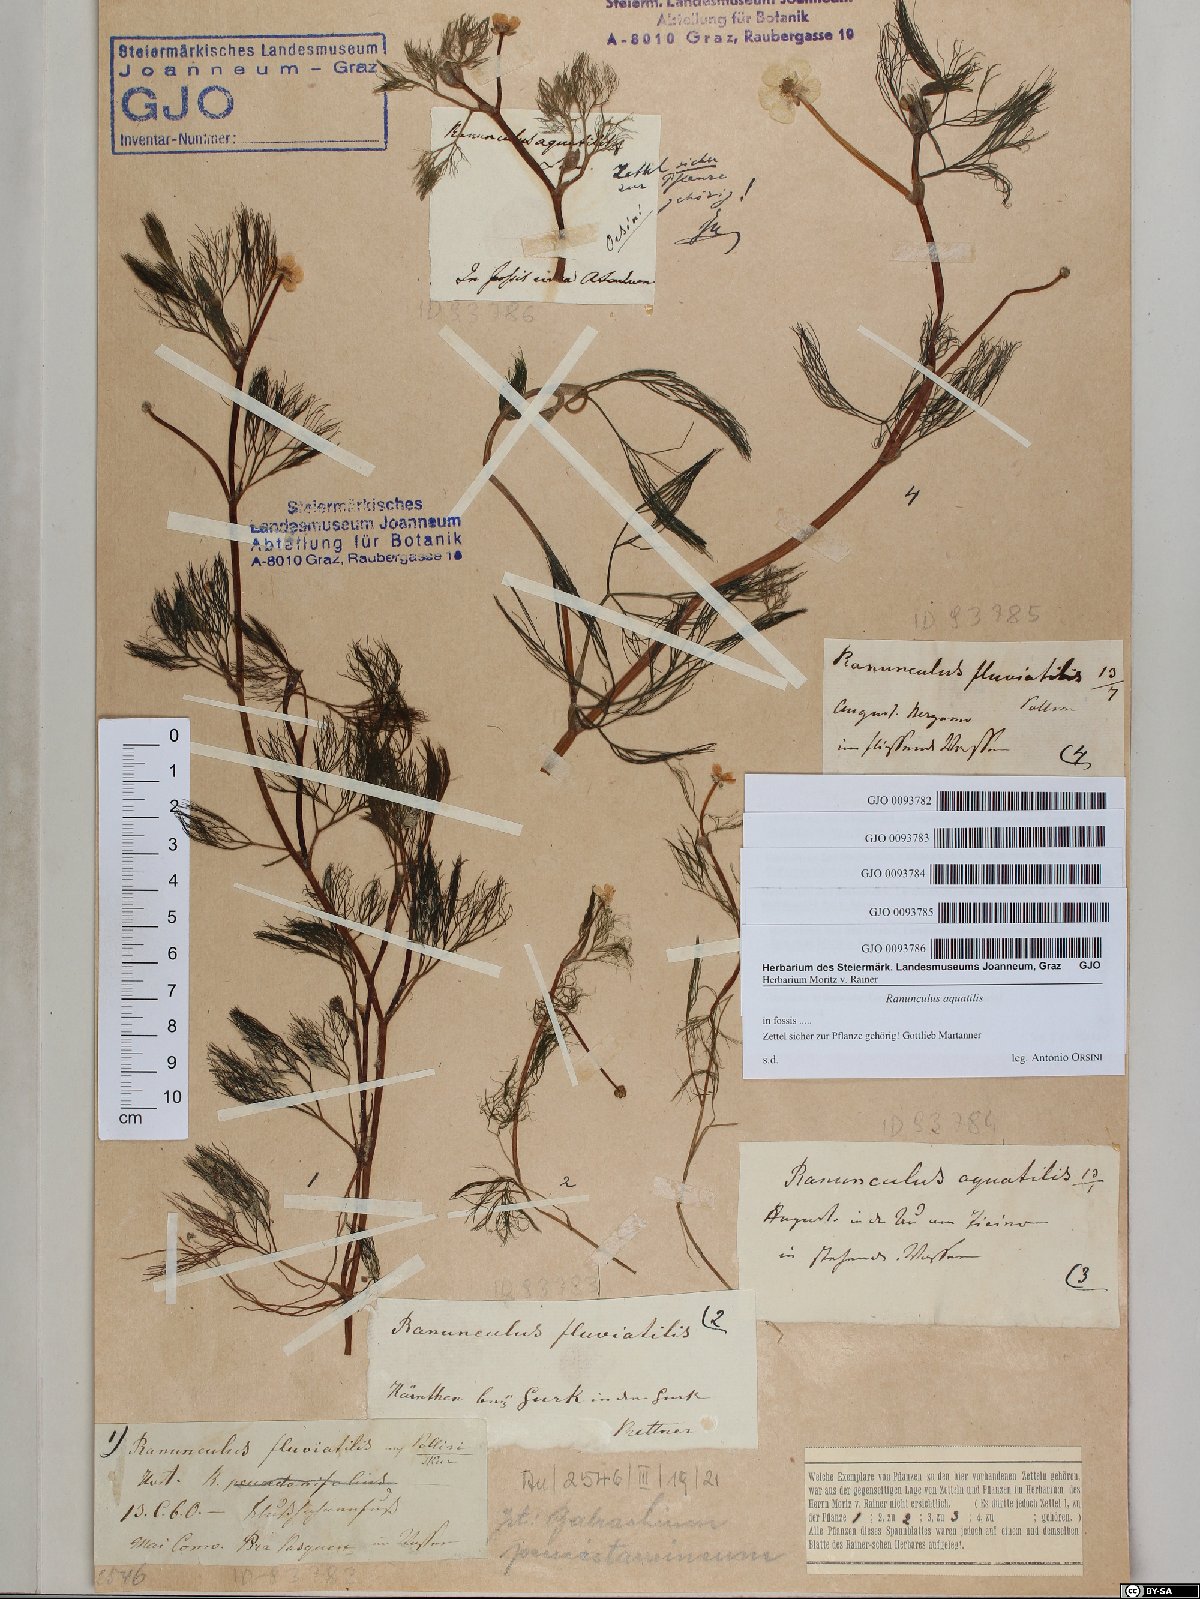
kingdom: Plantae
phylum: Tracheophyta
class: Magnoliopsida
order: Ranunculales
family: Ranunculaceae
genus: Ranunculus
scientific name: Ranunculus aquatilis
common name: Common water-crowfoot
